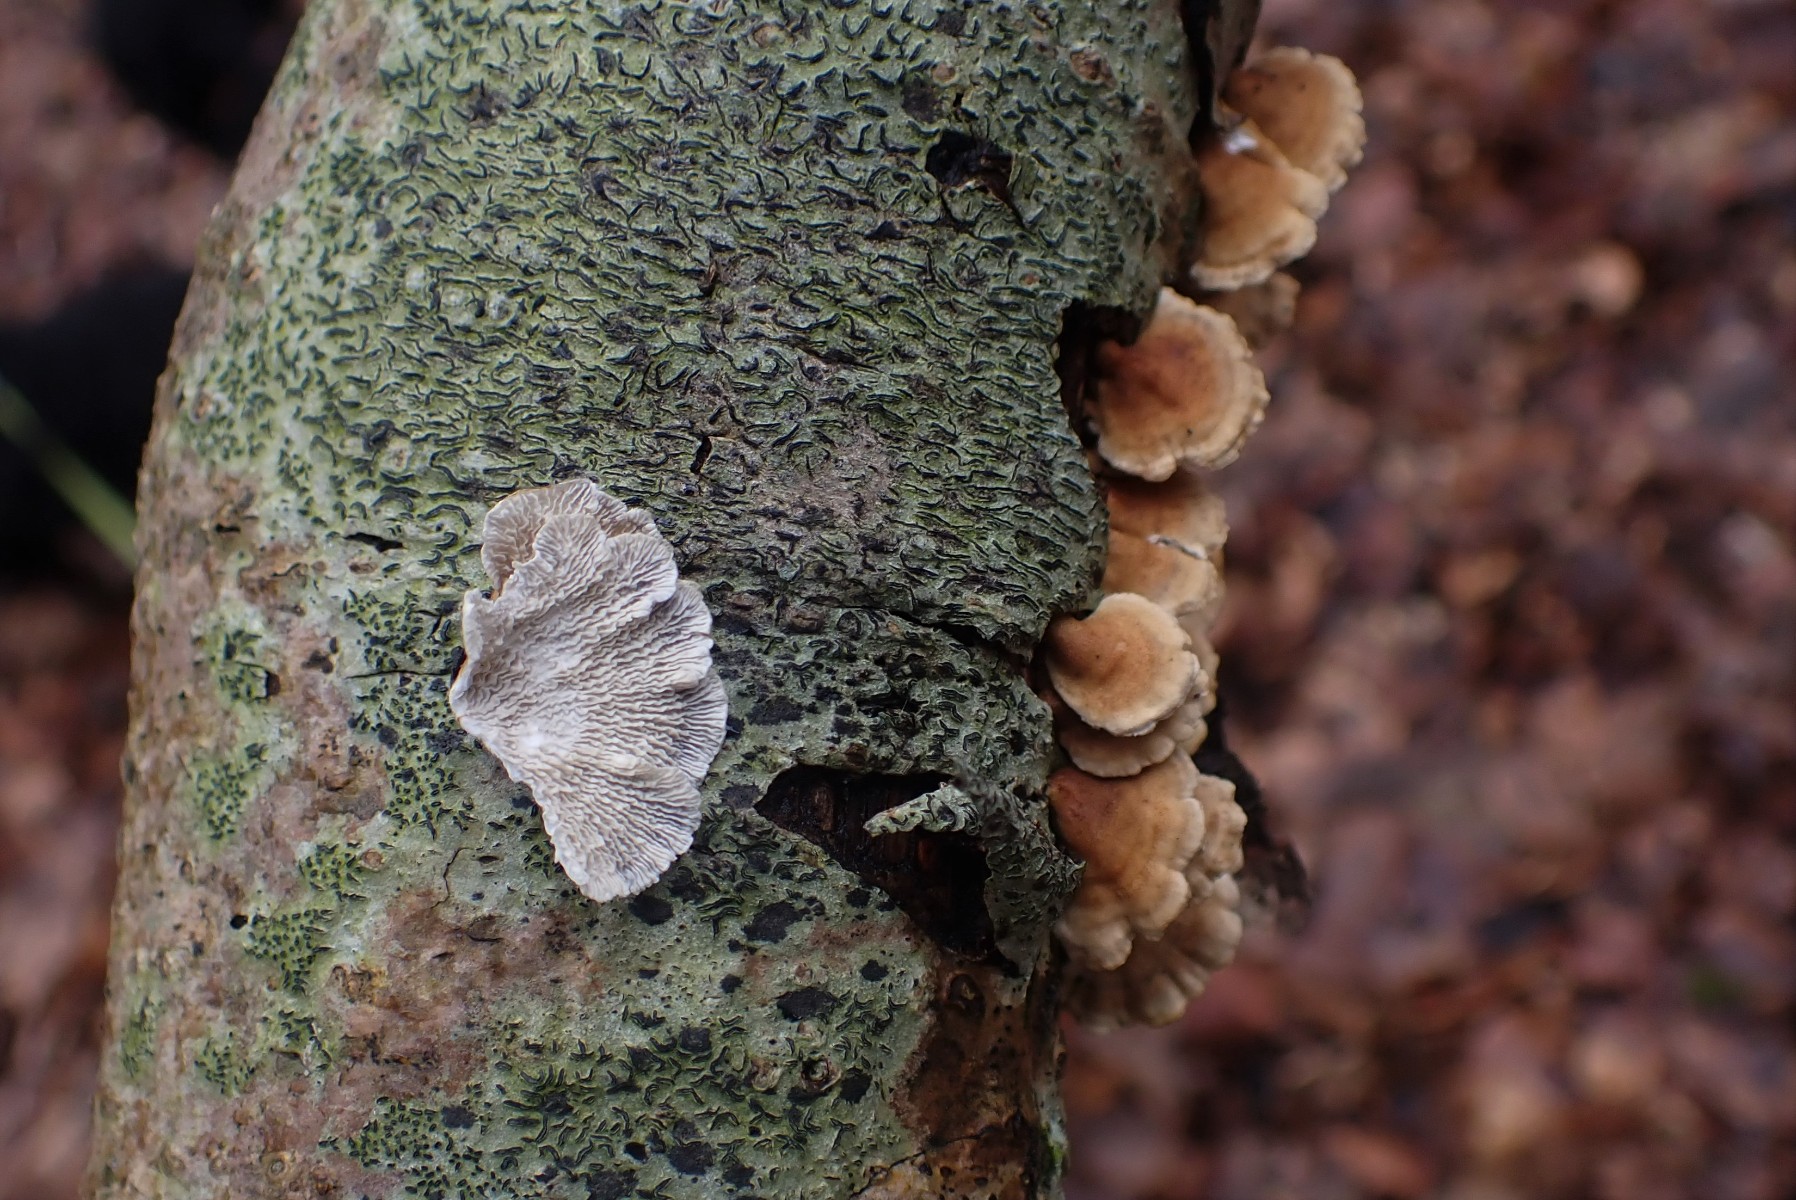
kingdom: Fungi
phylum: Basidiomycota
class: Agaricomycetes
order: Amylocorticiales
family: Amylocorticiaceae
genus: Plicaturopsis
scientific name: Plicaturopsis crispa
